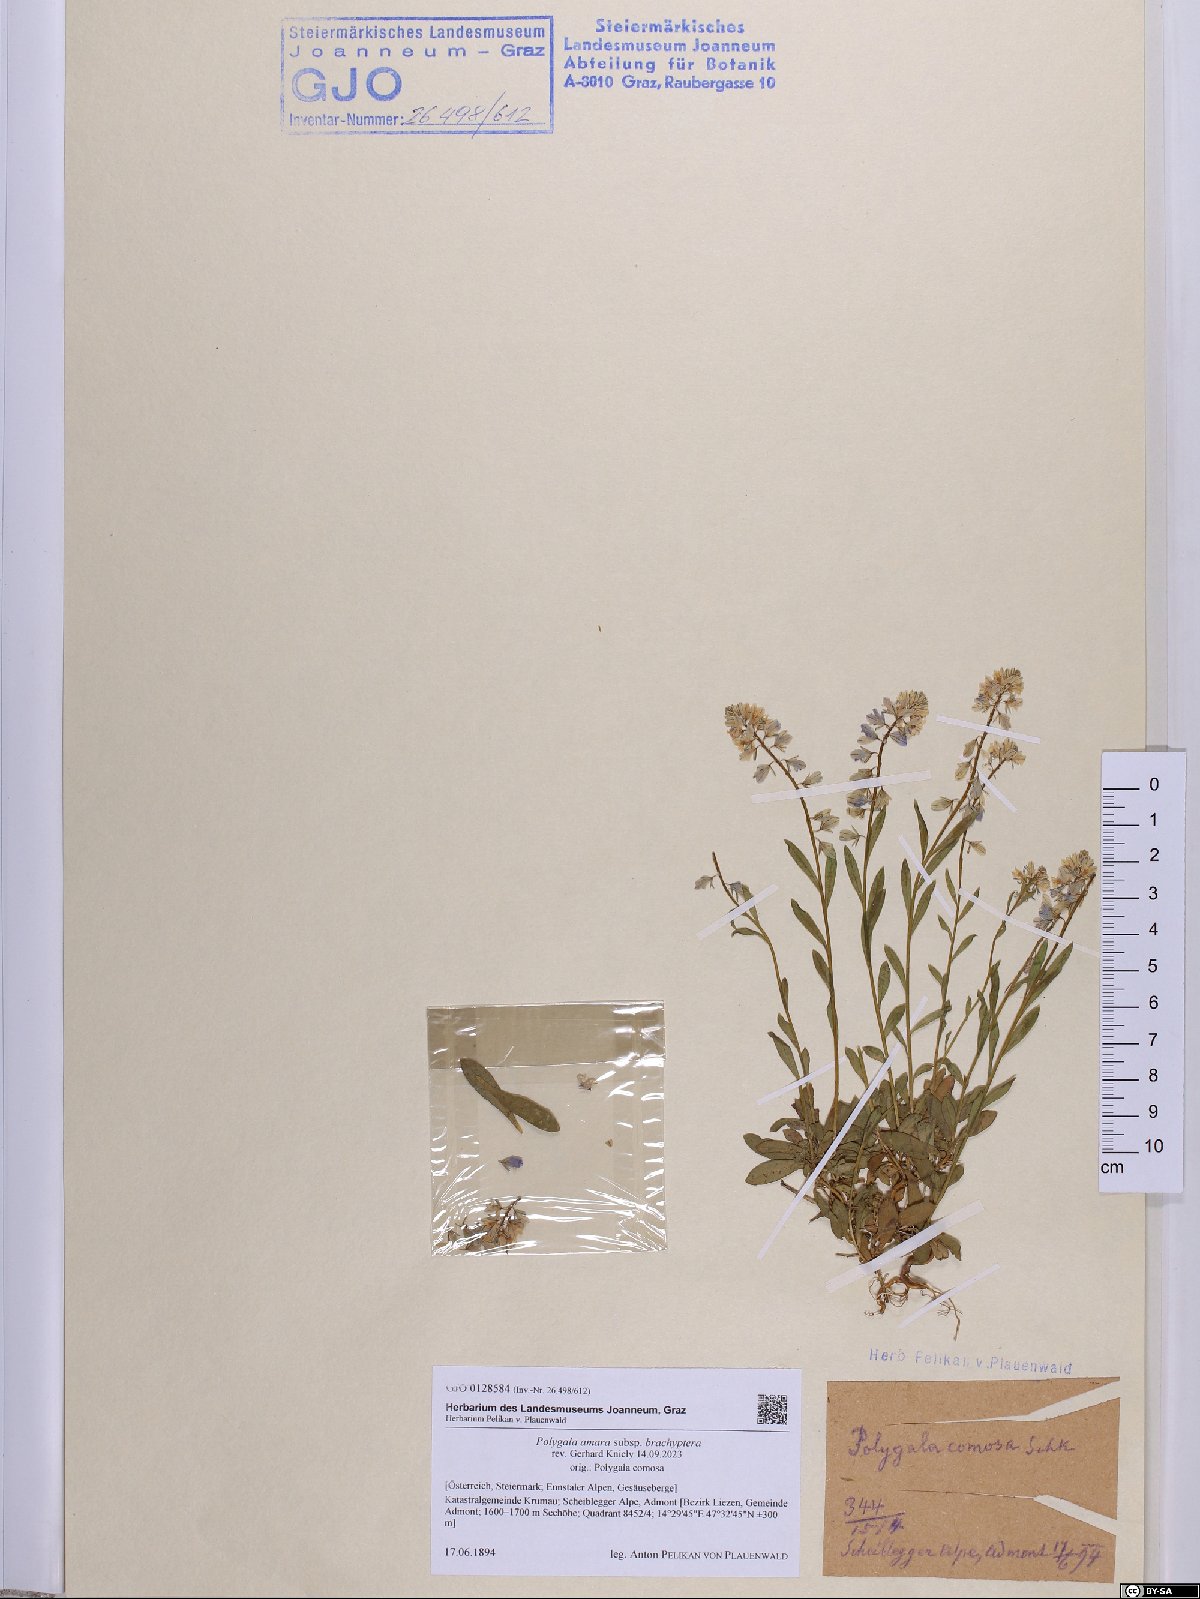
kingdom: Plantae
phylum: Tracheophyta
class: Magnoliopsida
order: Fabales
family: Polygalaceae
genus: Polygala
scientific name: Polygala amara
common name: Milkwort
